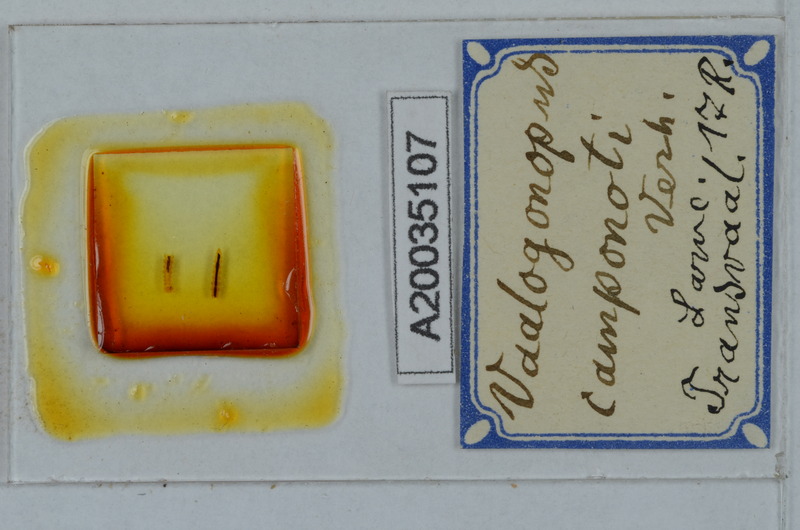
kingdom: Animalia
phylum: Arthropoda
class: Diplopoda
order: Polydesmida
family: Vaalogonopodidae
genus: Vaalogonopus
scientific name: Vaalogonopus camponoti
